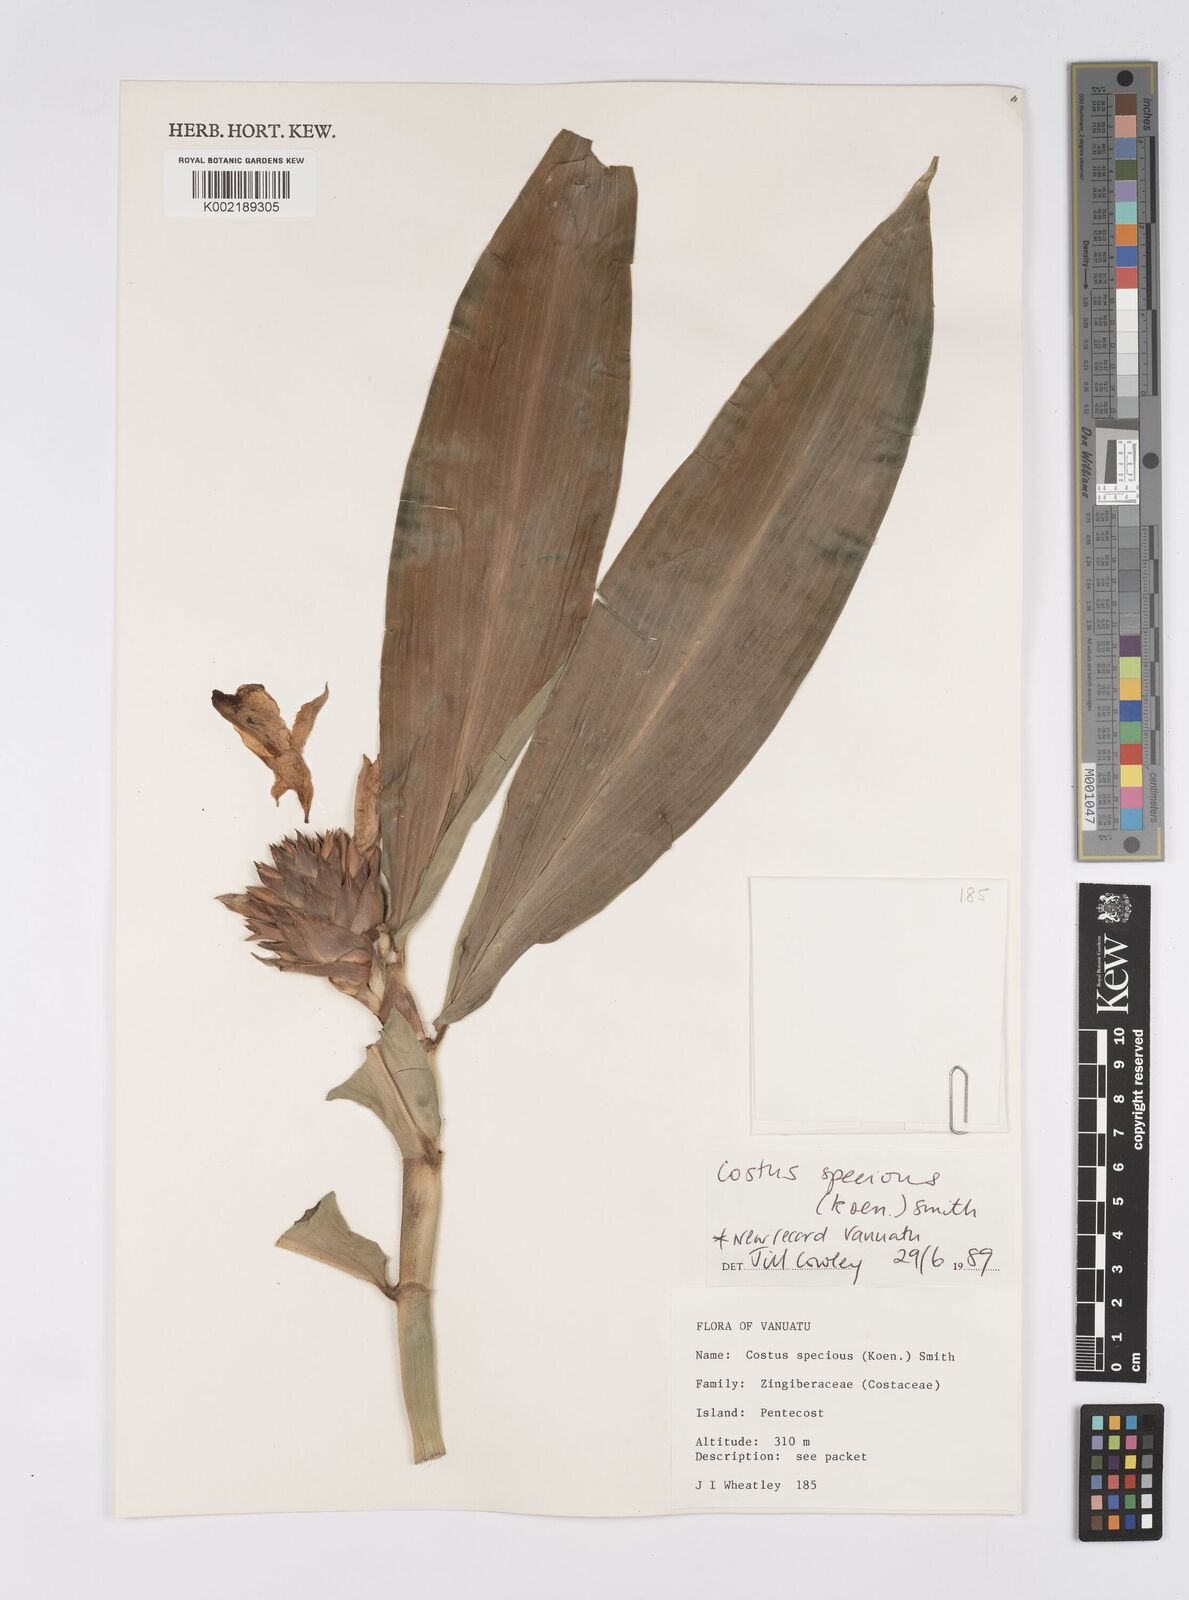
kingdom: Plantae
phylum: Tracheophyta
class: Liliopsida
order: Zingiberales
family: Costaceae
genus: Hellenia
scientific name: Hellenia speciosa
